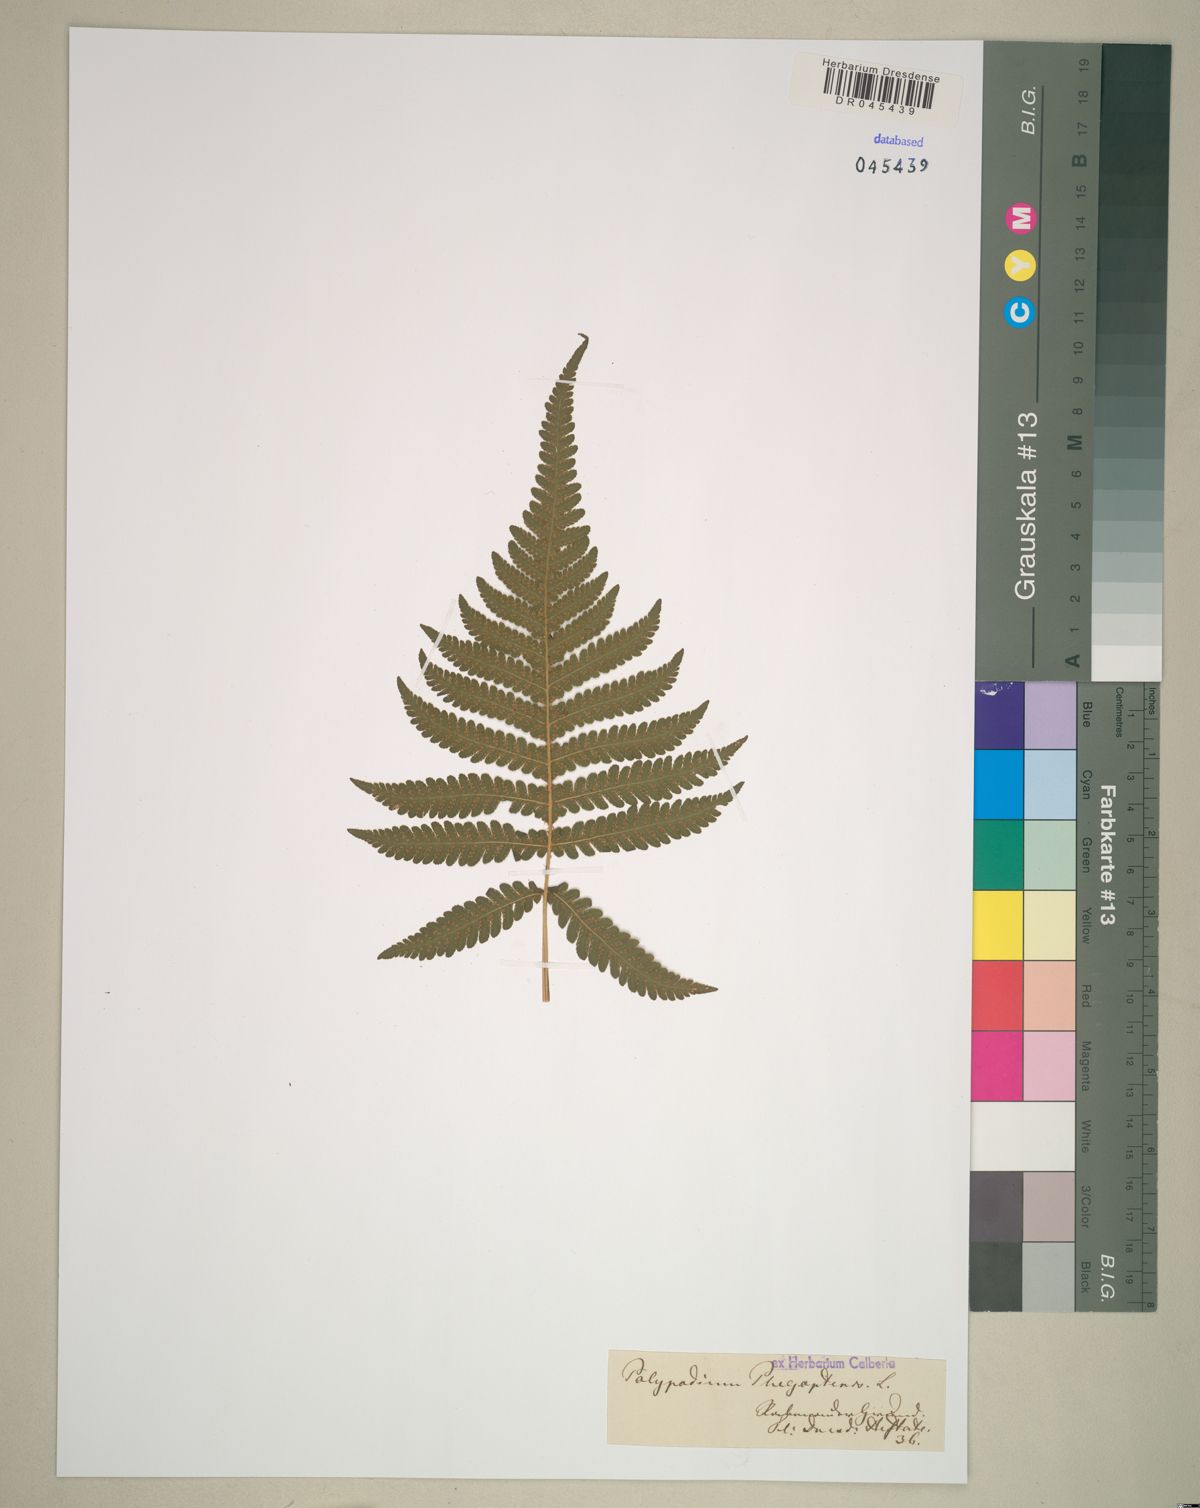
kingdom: Plantae
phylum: Tracheophyta
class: Polypodiopsida
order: Polypodiales
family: Thelypteridaceae
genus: Phegopteris
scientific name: Phegopteris connectilis
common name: Beech fern
